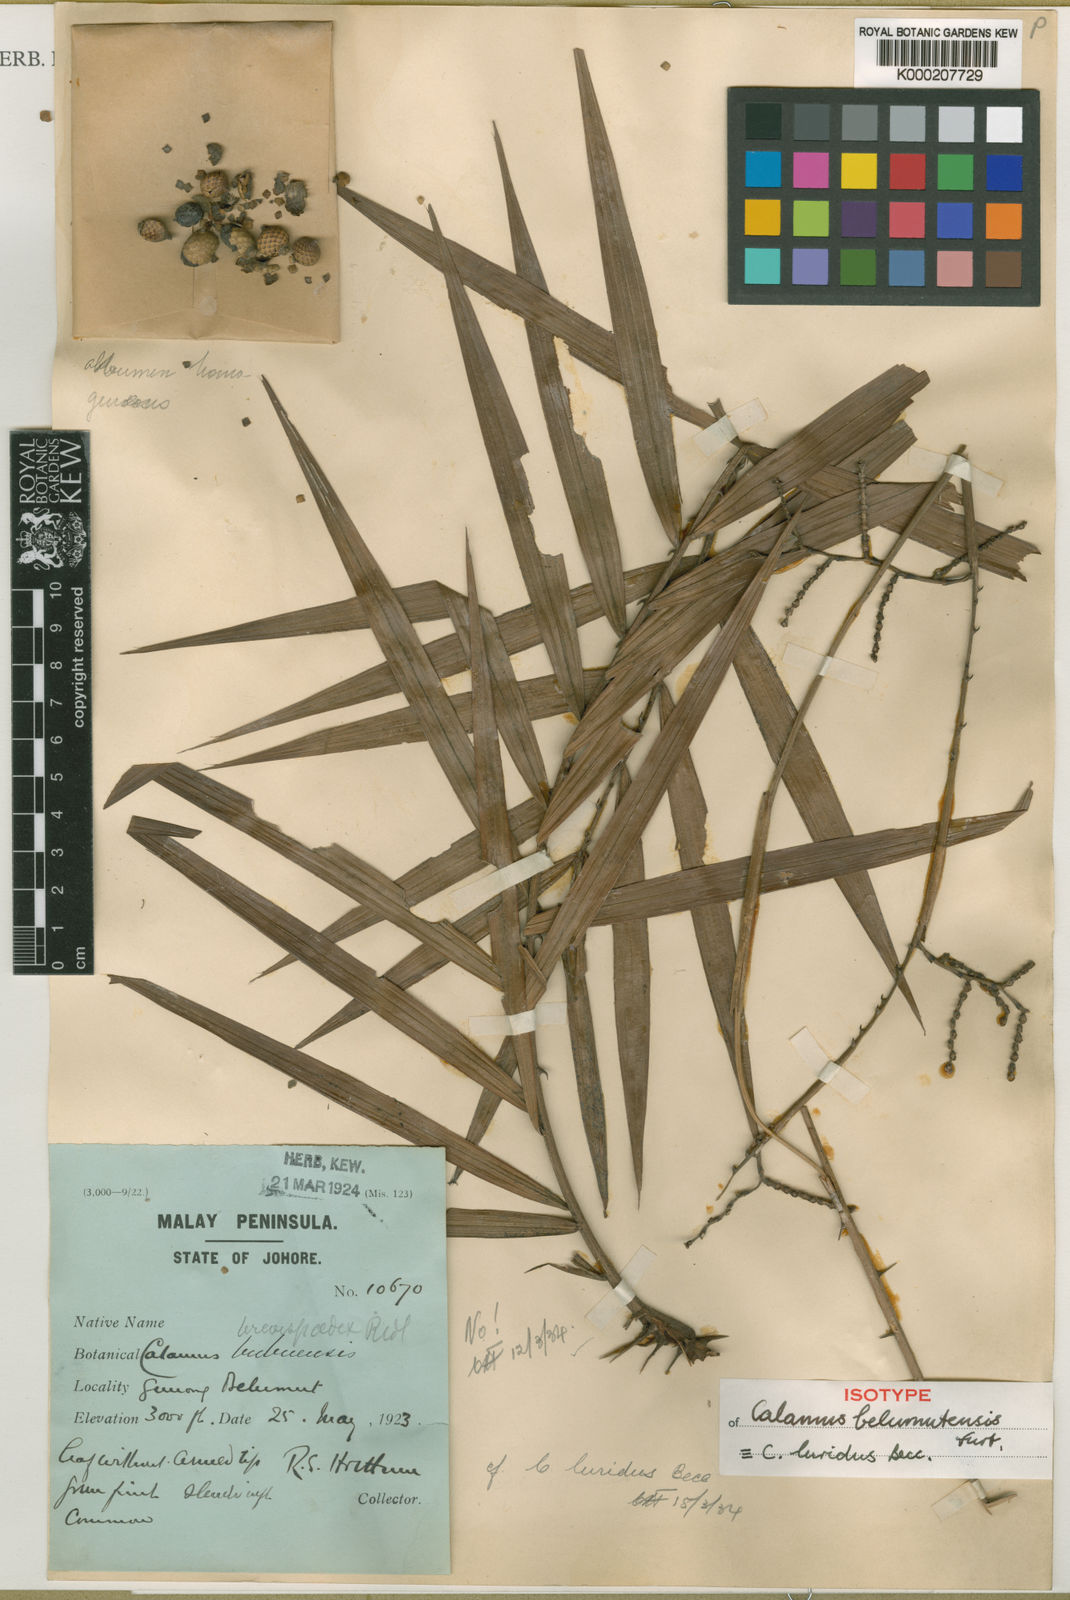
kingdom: Plantae
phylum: Tracheophyta
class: Liliopsida
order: Arecales
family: Arecaceae
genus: Calamus
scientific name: Calamus micranthus
